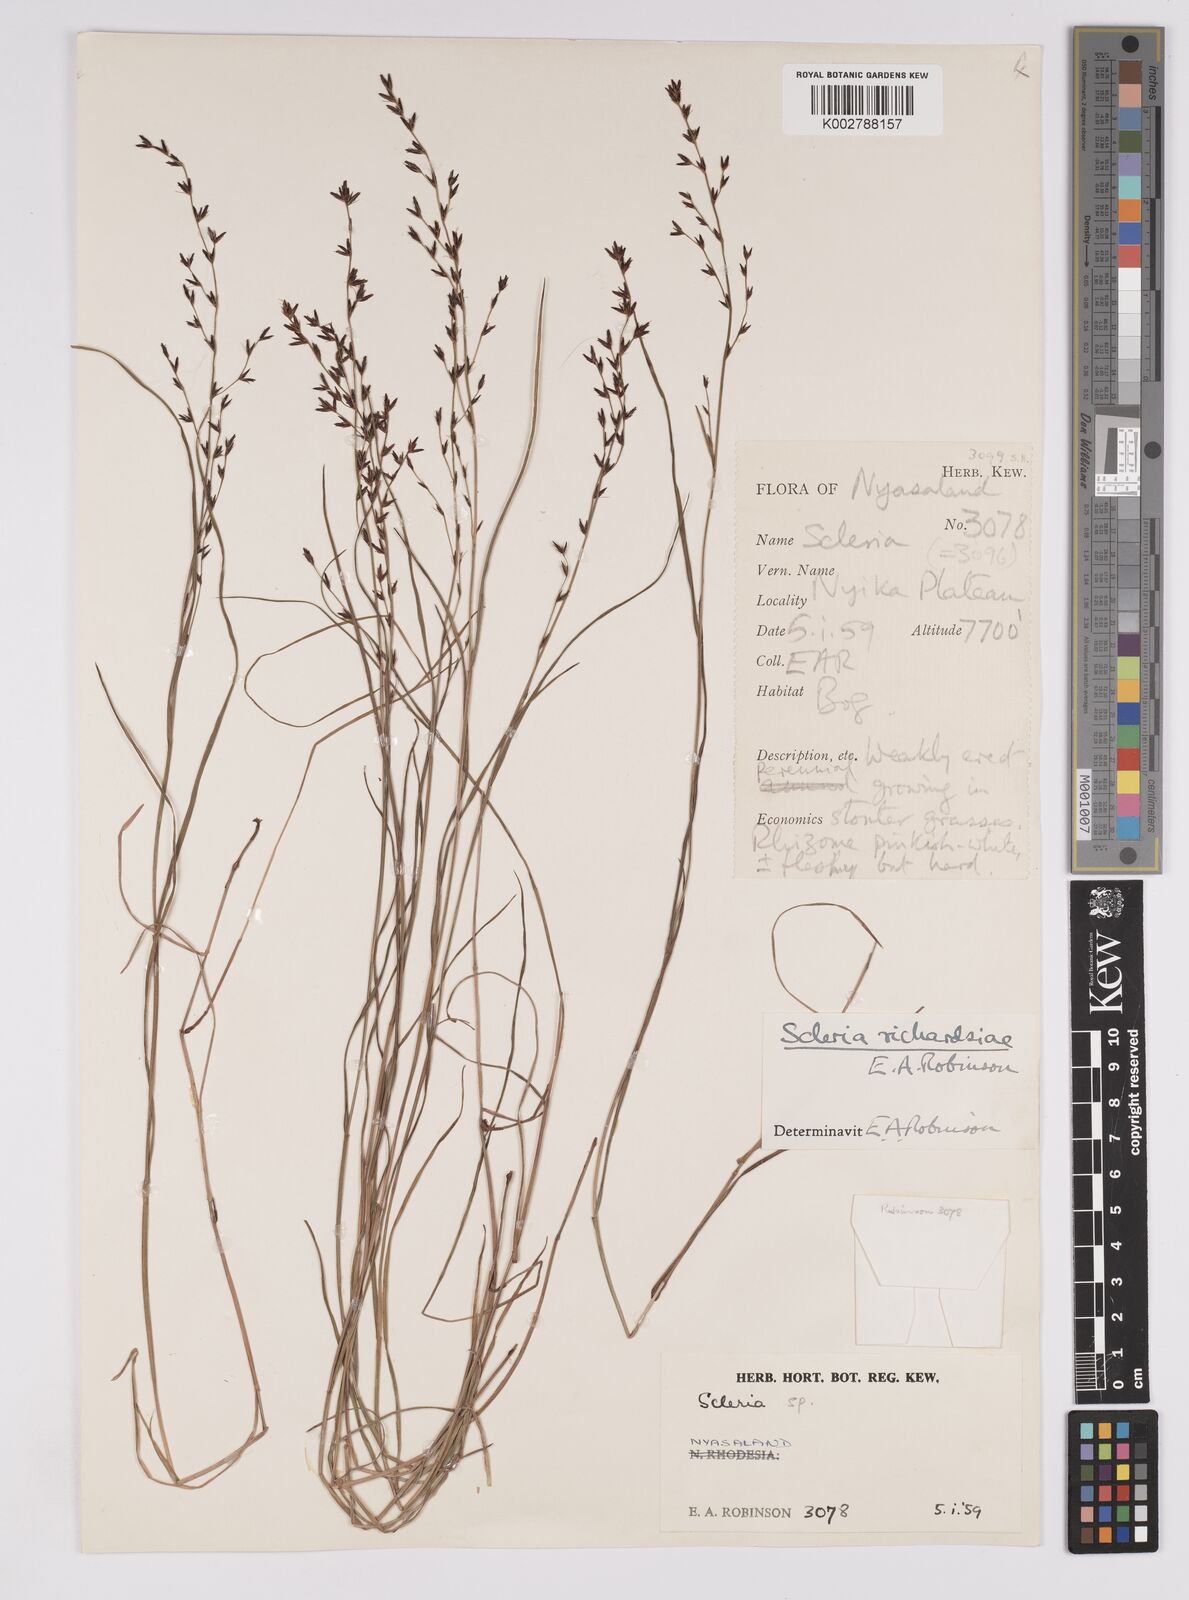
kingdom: Plantae
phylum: Tracheophyta
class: Liliopsida
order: Poales
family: Cyperaceae
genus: Scleria
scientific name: Scleria richardsiae
